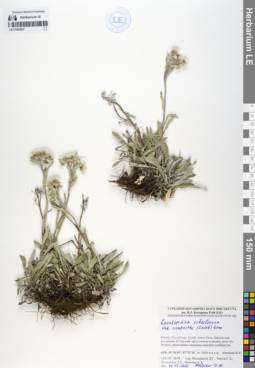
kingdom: Plantae
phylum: Tracheophyta
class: Magnoliopsida
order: Asterales
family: Asteraceae
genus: Leontopodium
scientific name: Leontopodium campestre
